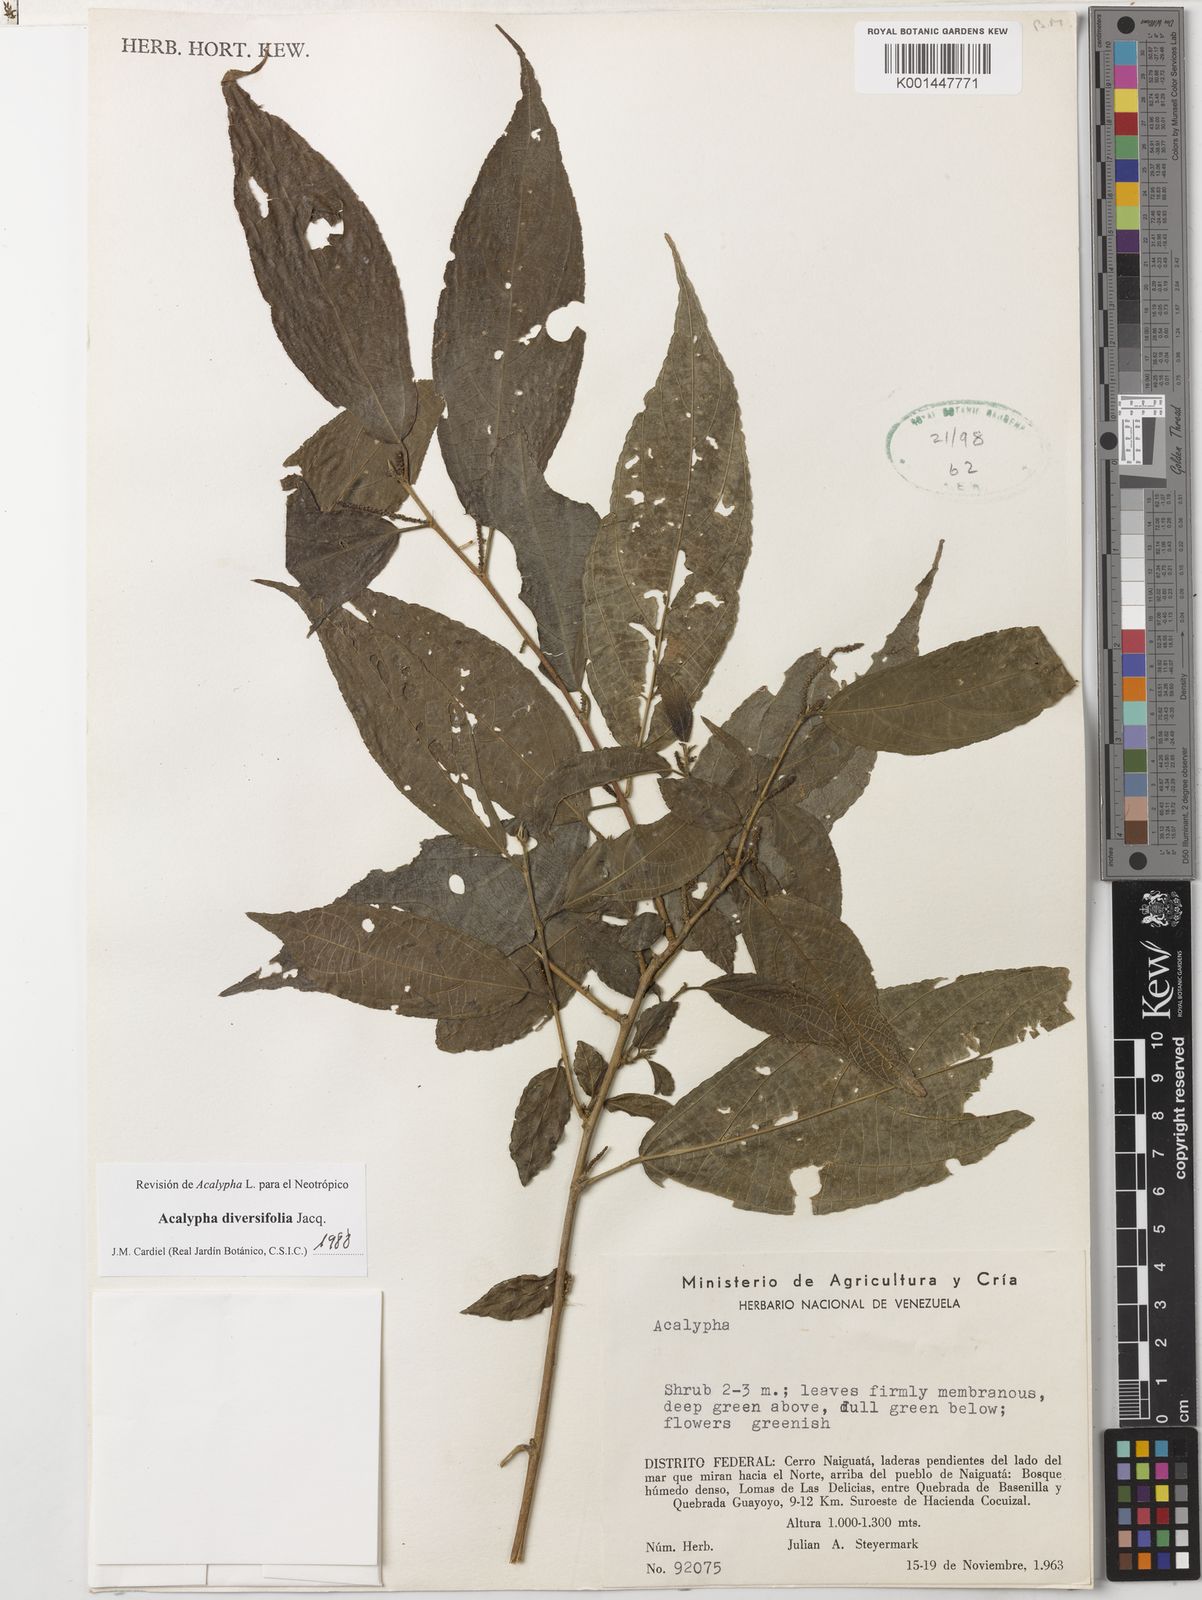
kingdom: Plantae
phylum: Tracheophyta
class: Magnoliopsida
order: Malpighiales
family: Euphorbiaceae
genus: Acalypha
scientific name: Acalypha diversifolia
